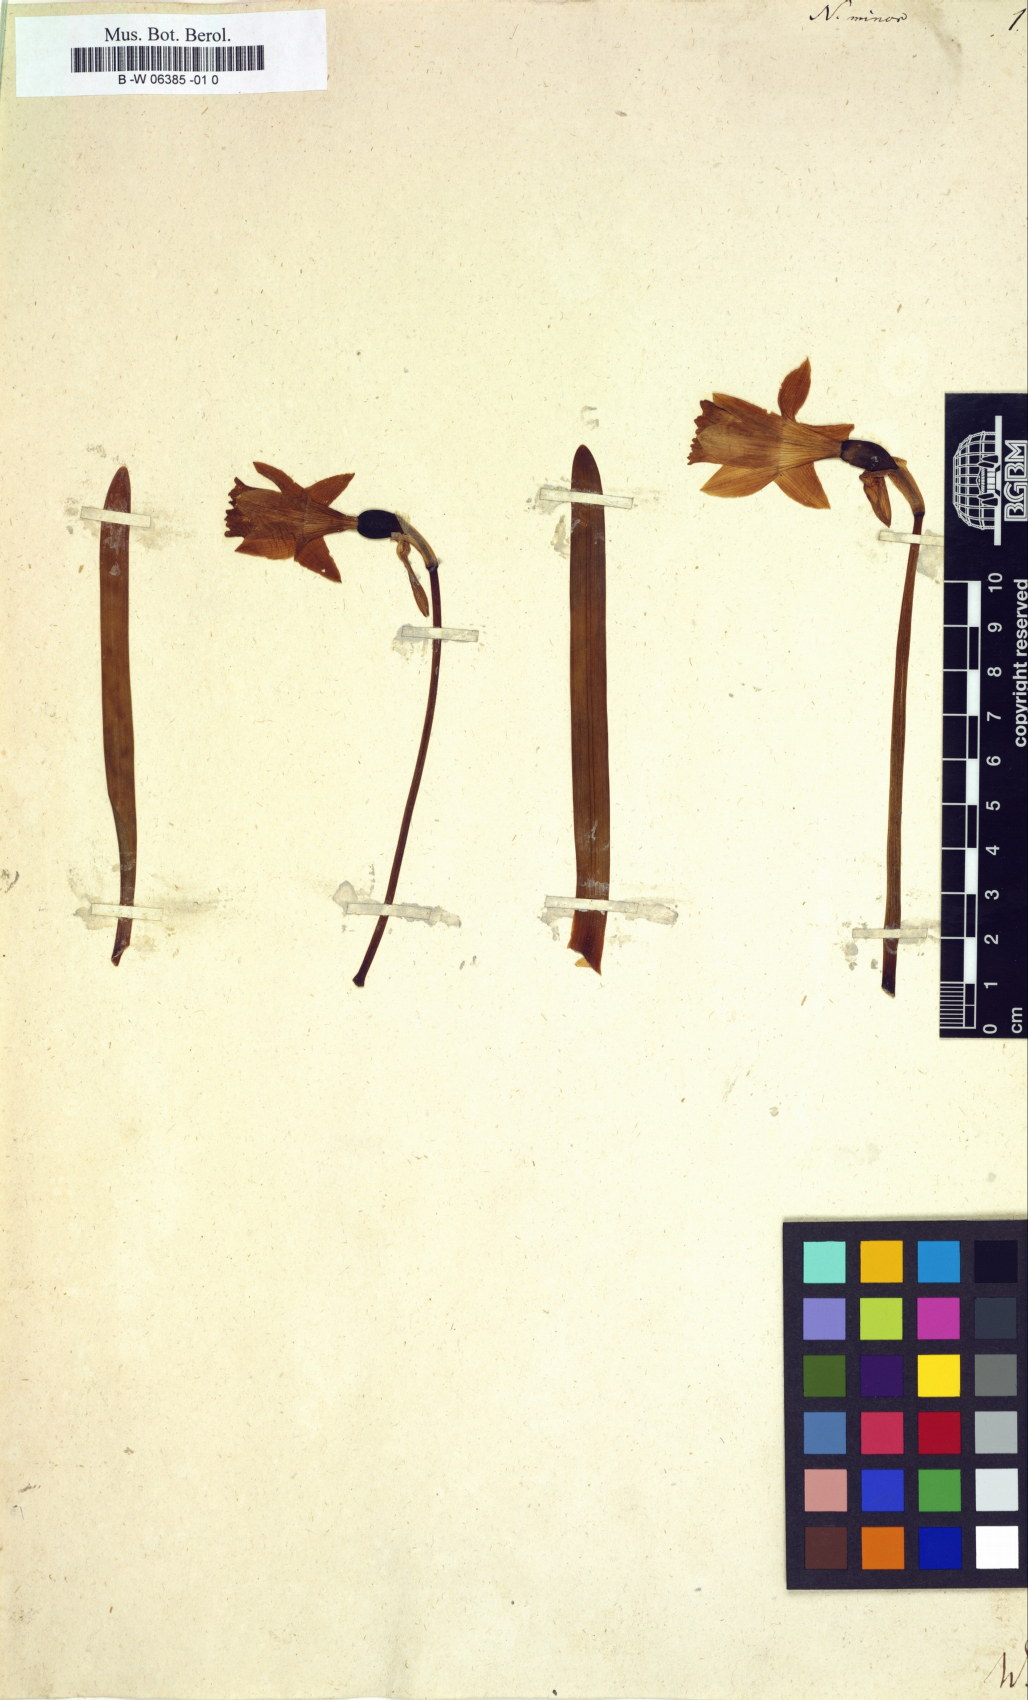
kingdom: Plantae
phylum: Tracheophyta
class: Liliopsida
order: Asparagales
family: Amaryllidaceae
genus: Narcissus
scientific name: Narcissus minor
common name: Lesser daffodil
